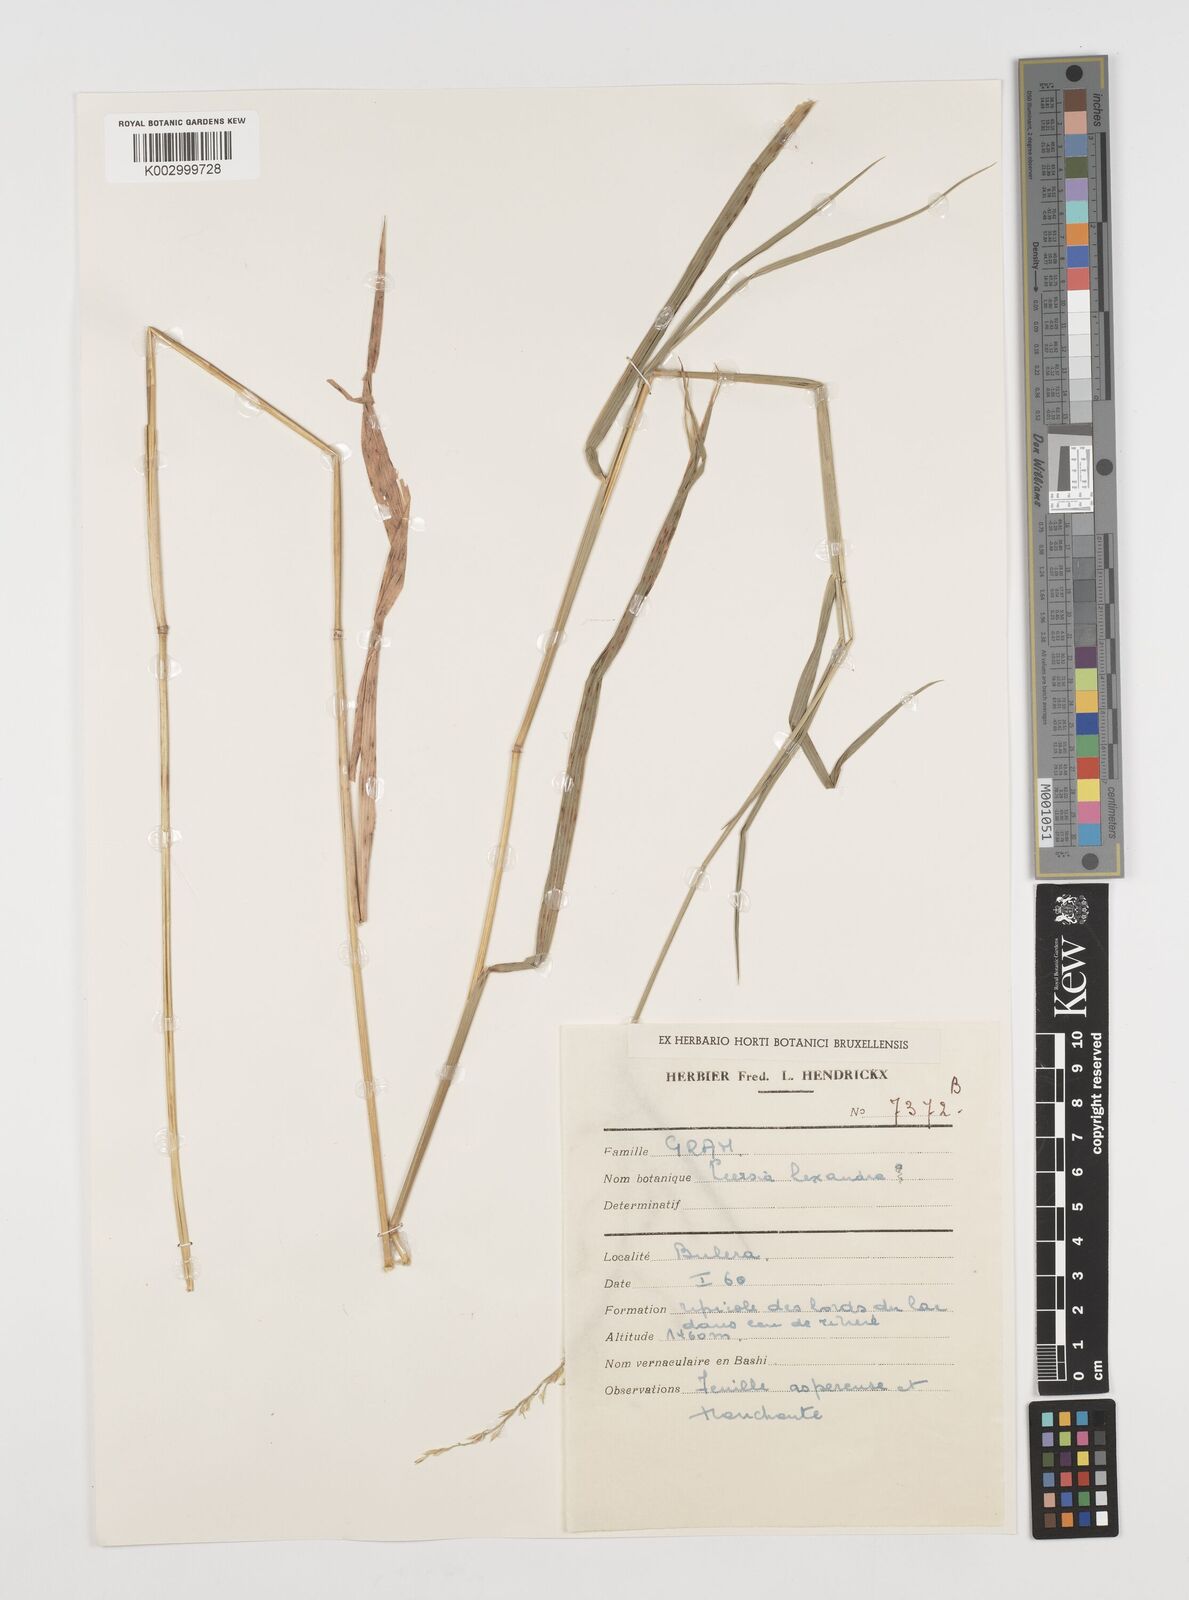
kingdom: Plantae
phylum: Tracheophyta
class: Liliopsida
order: Poales
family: Poaceae
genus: Leersia
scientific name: Leersia hexandra
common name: Southern cut grass
